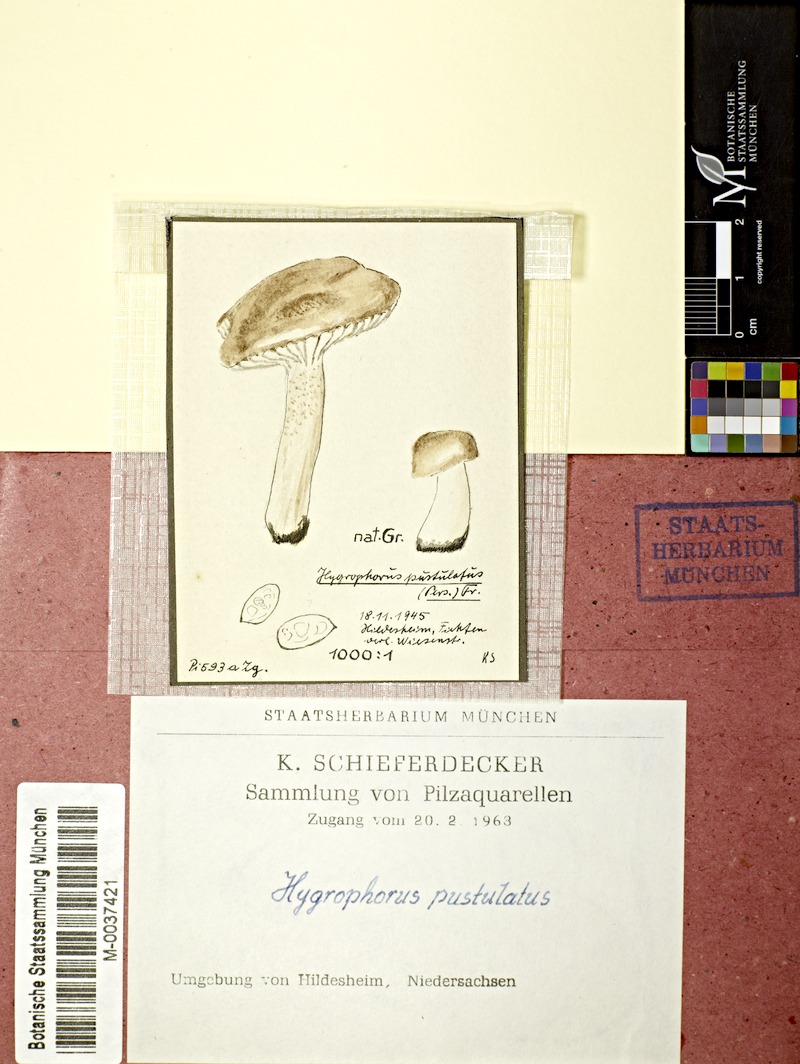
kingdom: Fungi
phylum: Basidiomycota
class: Agaricomycetes
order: Agaricales
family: Hygrophoraceae
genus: Hygrophorus
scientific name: Hygrophorus pustulatus
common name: Blistered woodwax
